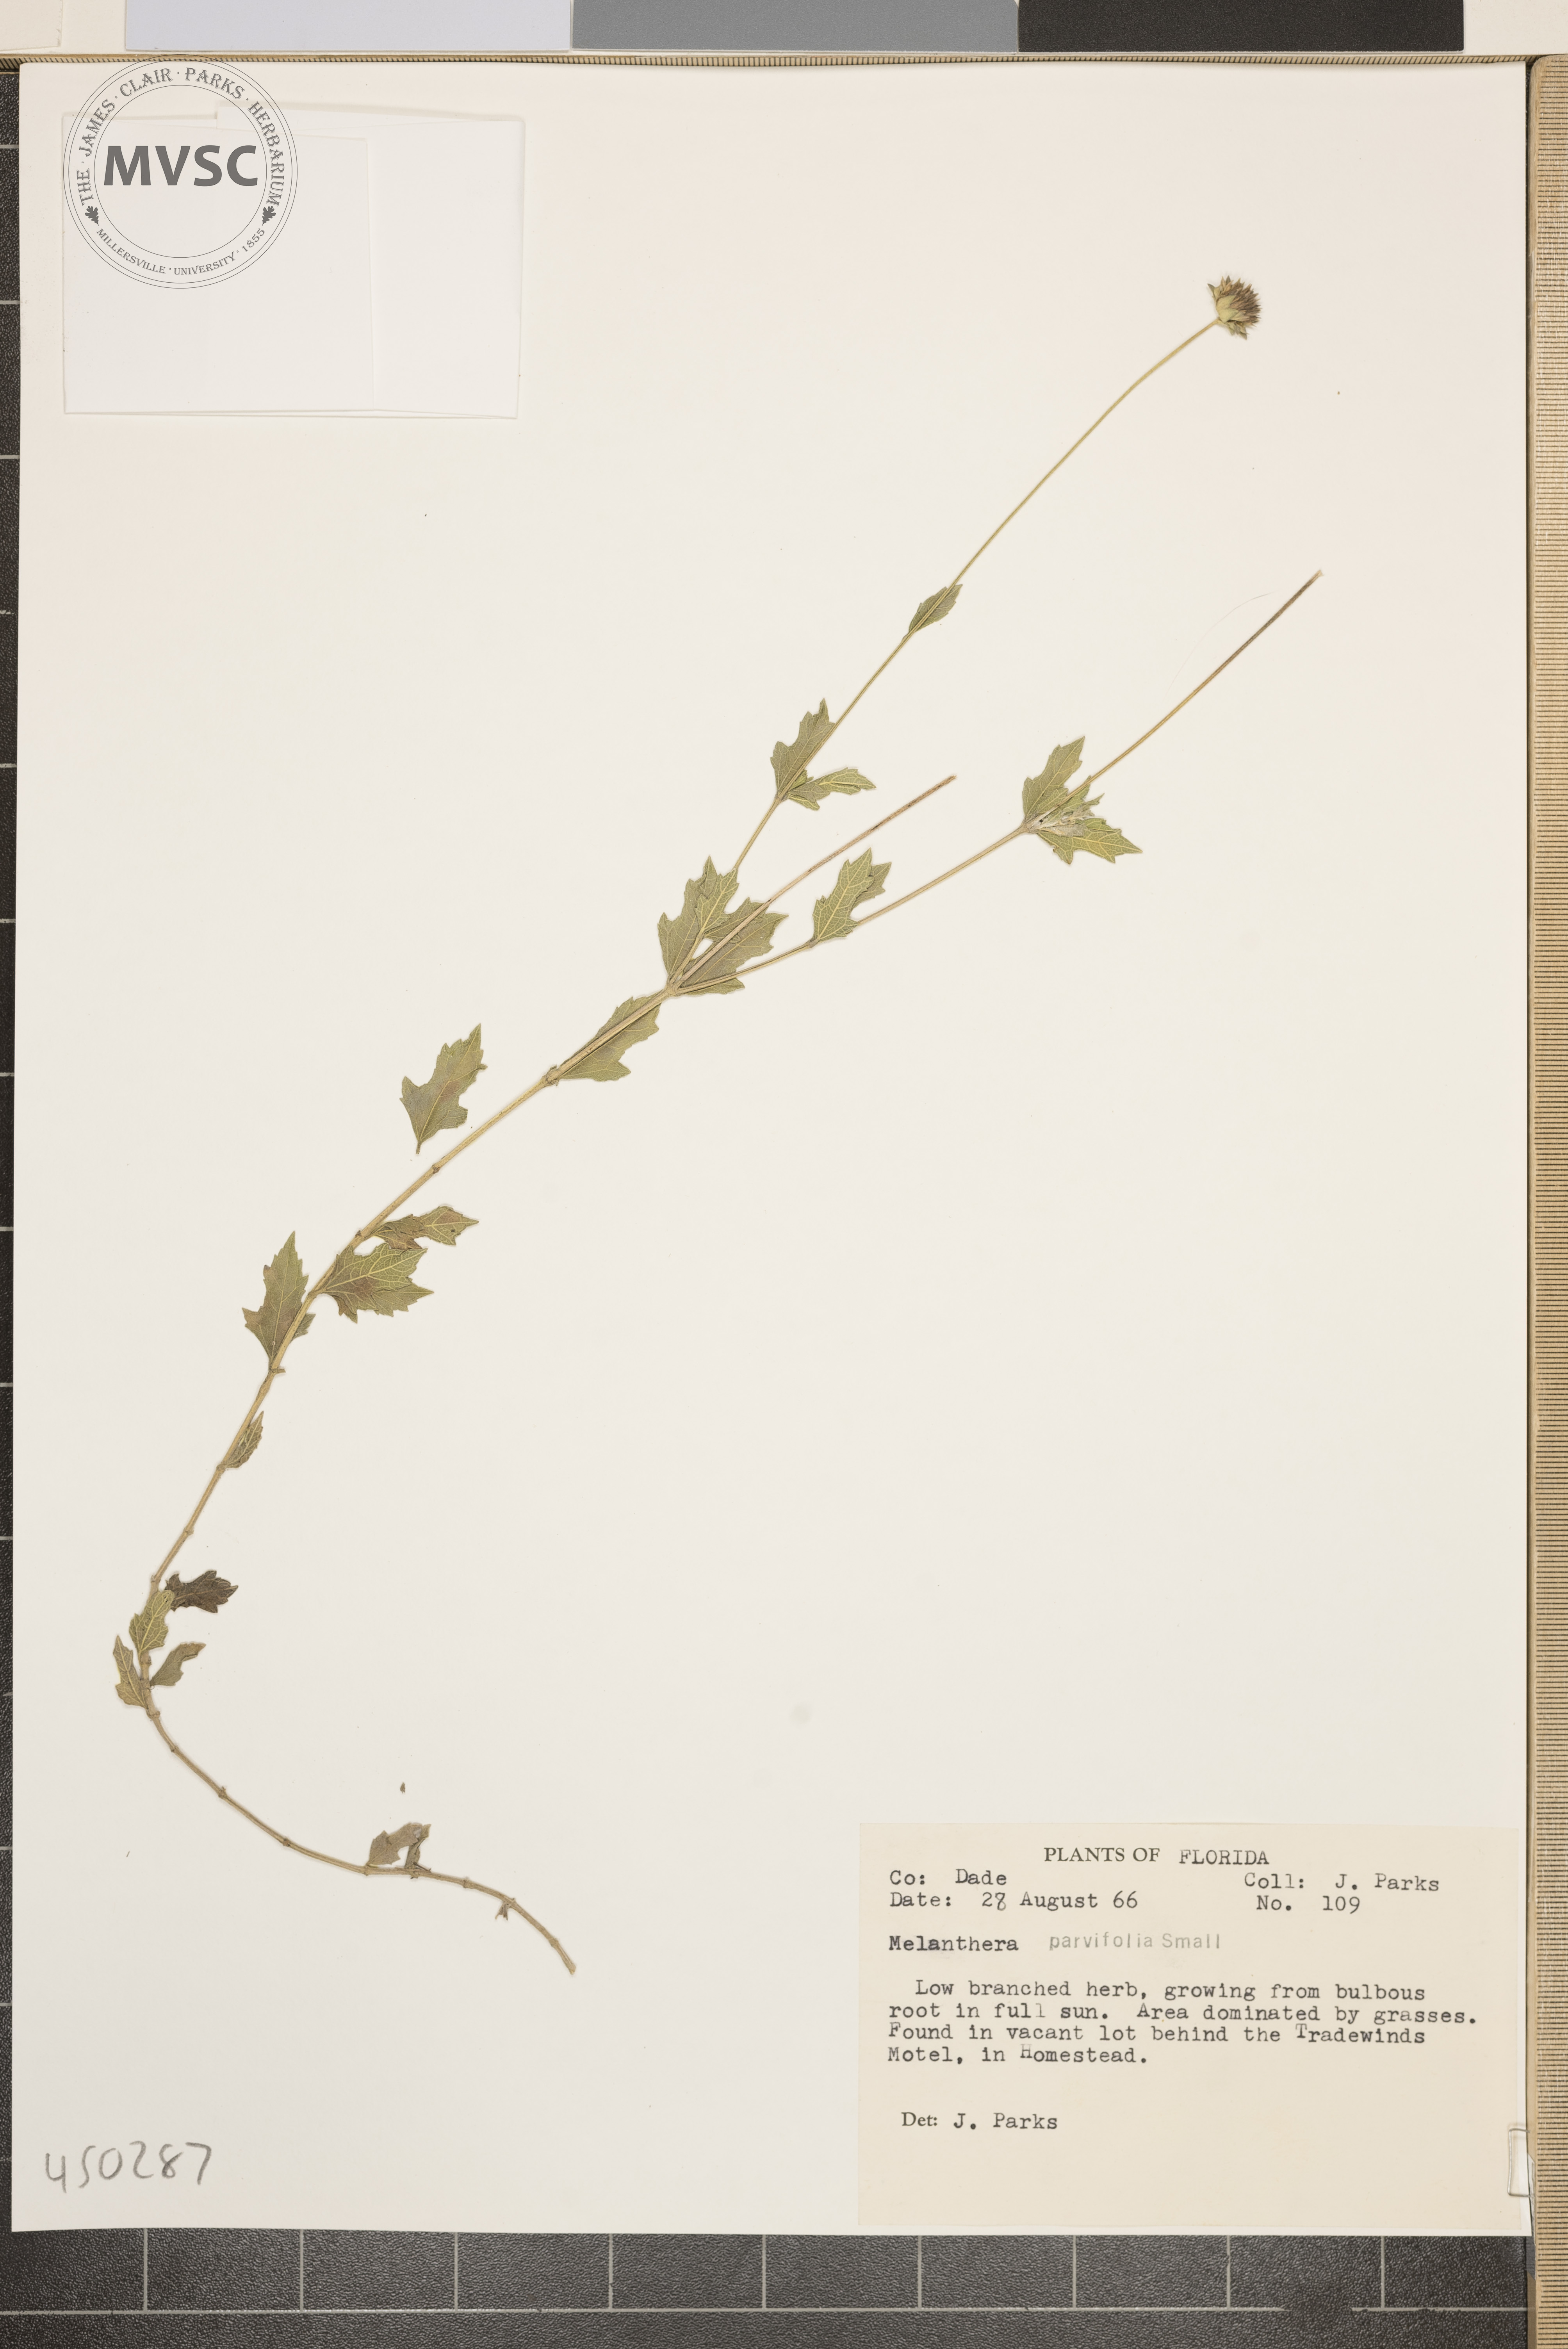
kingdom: Plantae
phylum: Tracheophyta
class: Magnoliopsida
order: Asterales
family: Asteraceae
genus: Melanthera
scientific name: Melanthera parvifolia
